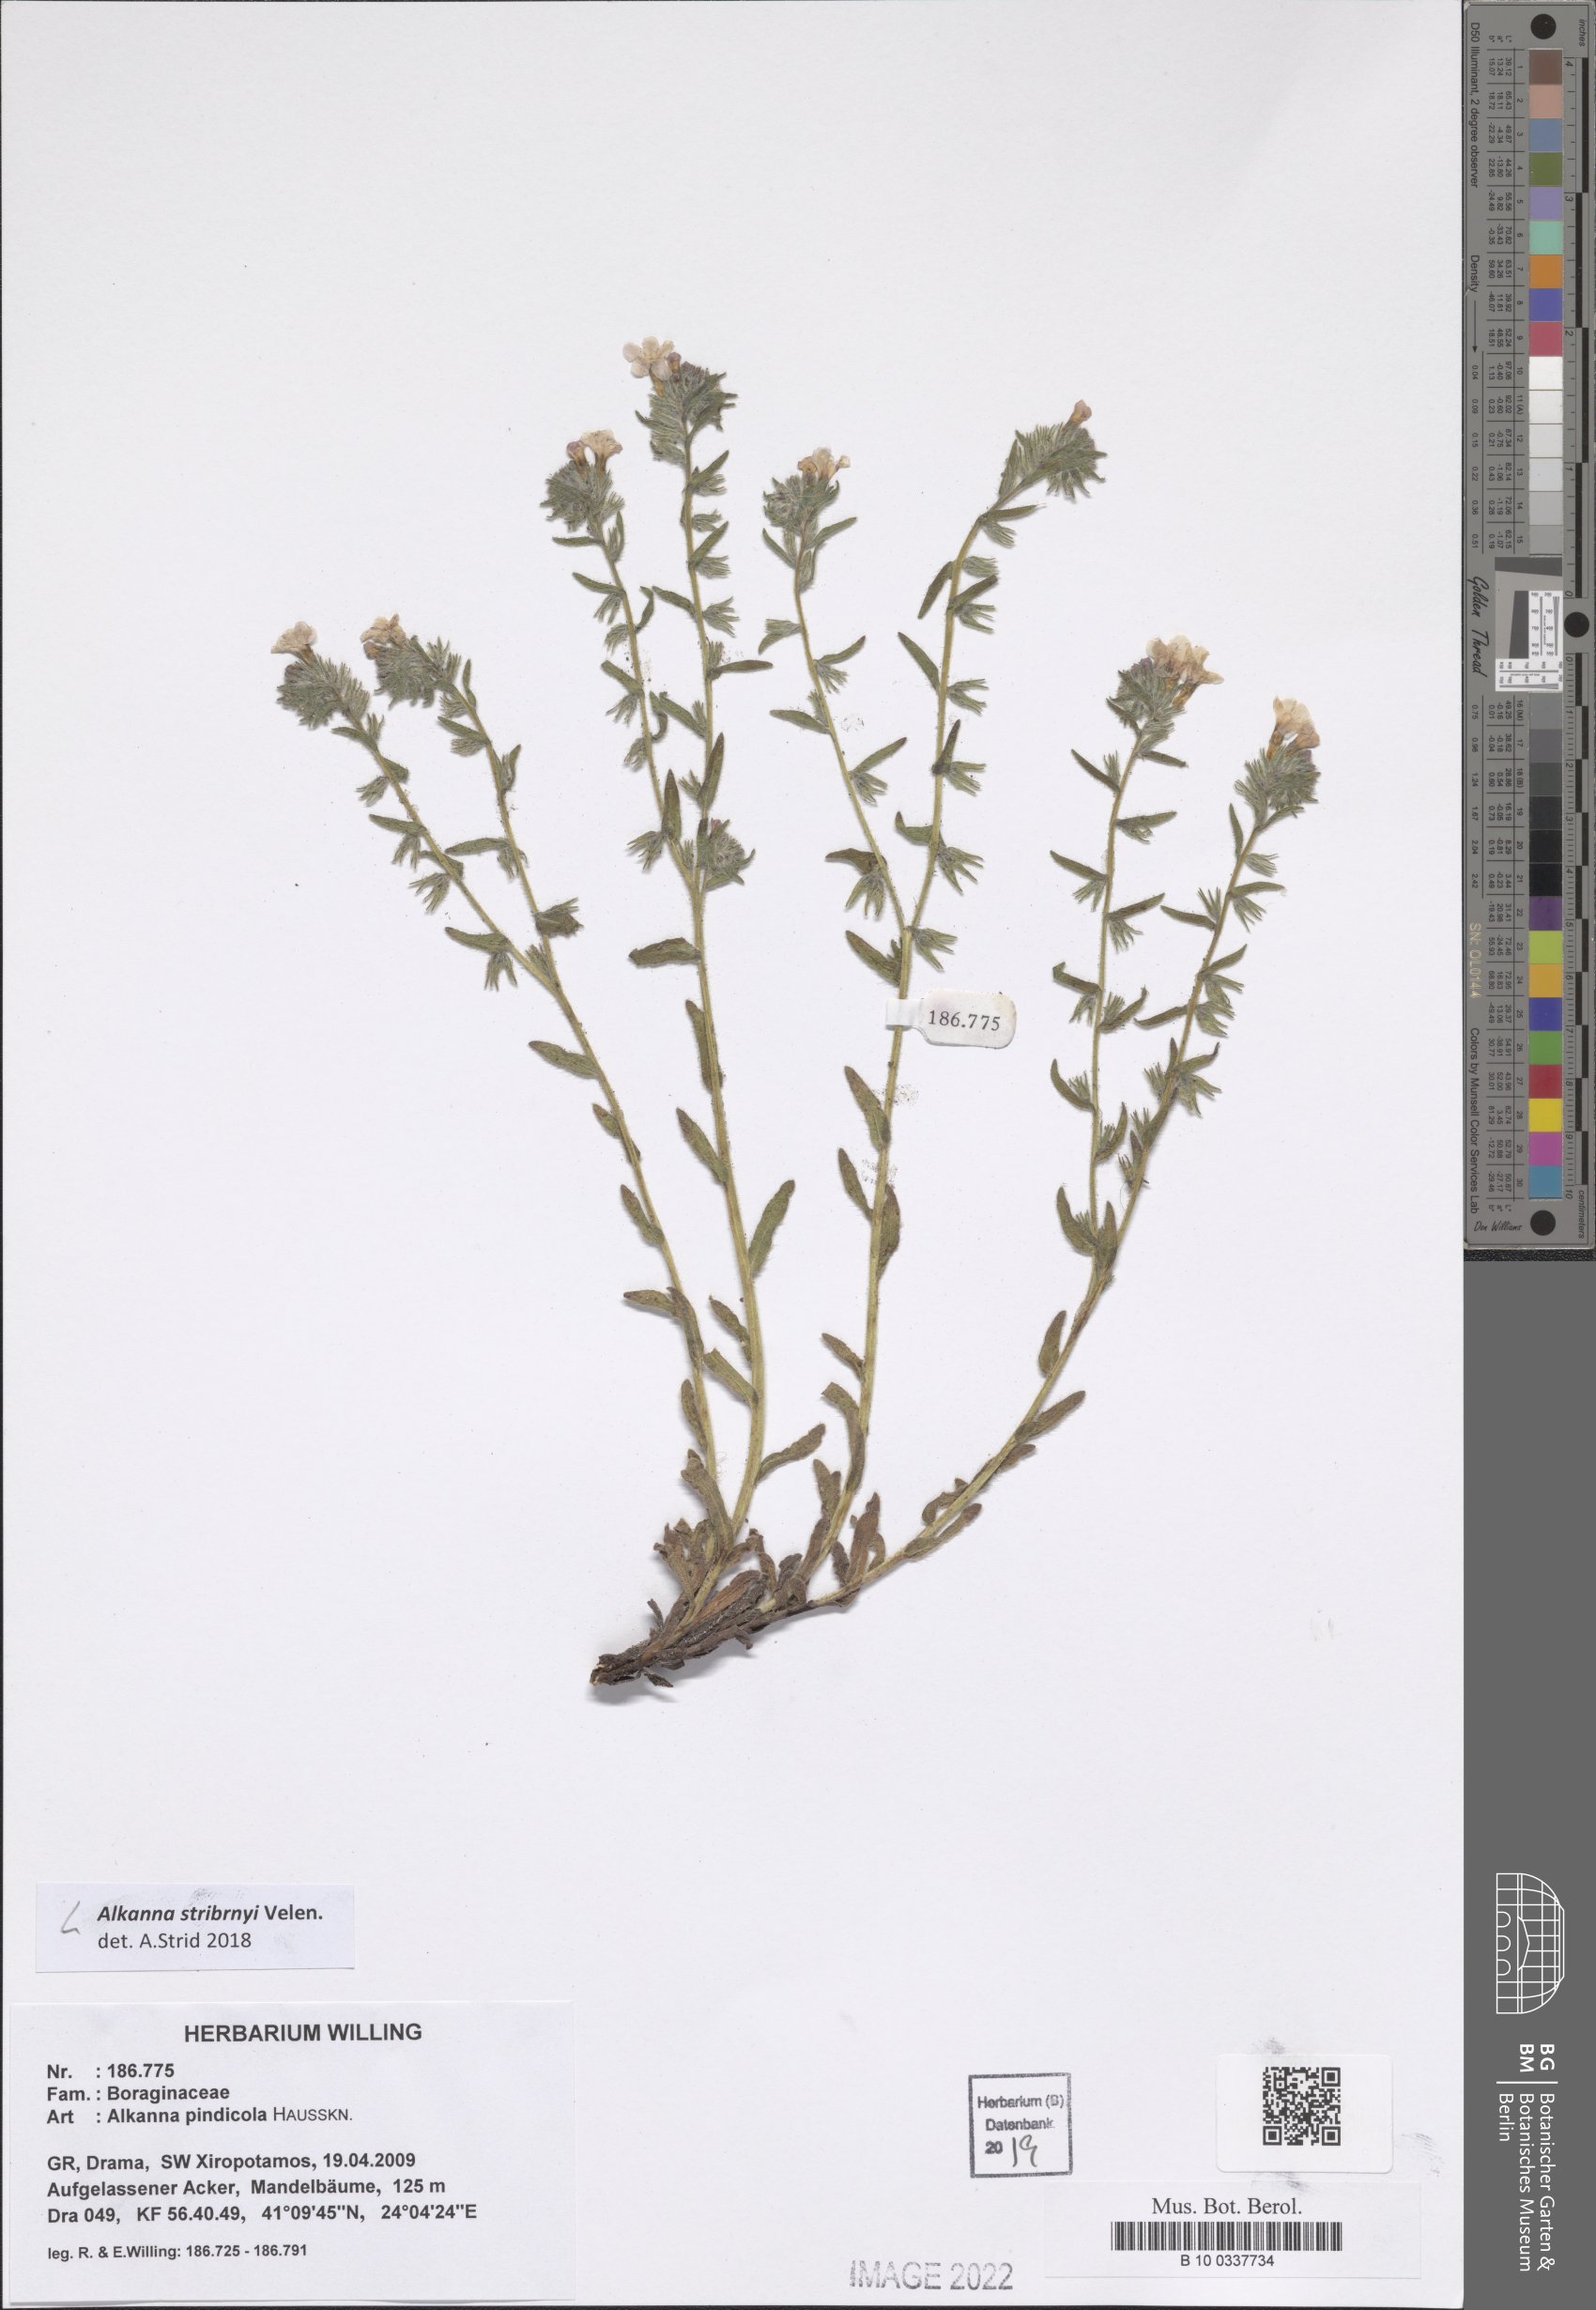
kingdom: Plantae
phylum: Tracheophyta
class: Magnoliopsida
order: Boraginales
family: Boraginaceae
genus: Alkanna
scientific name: Alkanna stribrnyi
